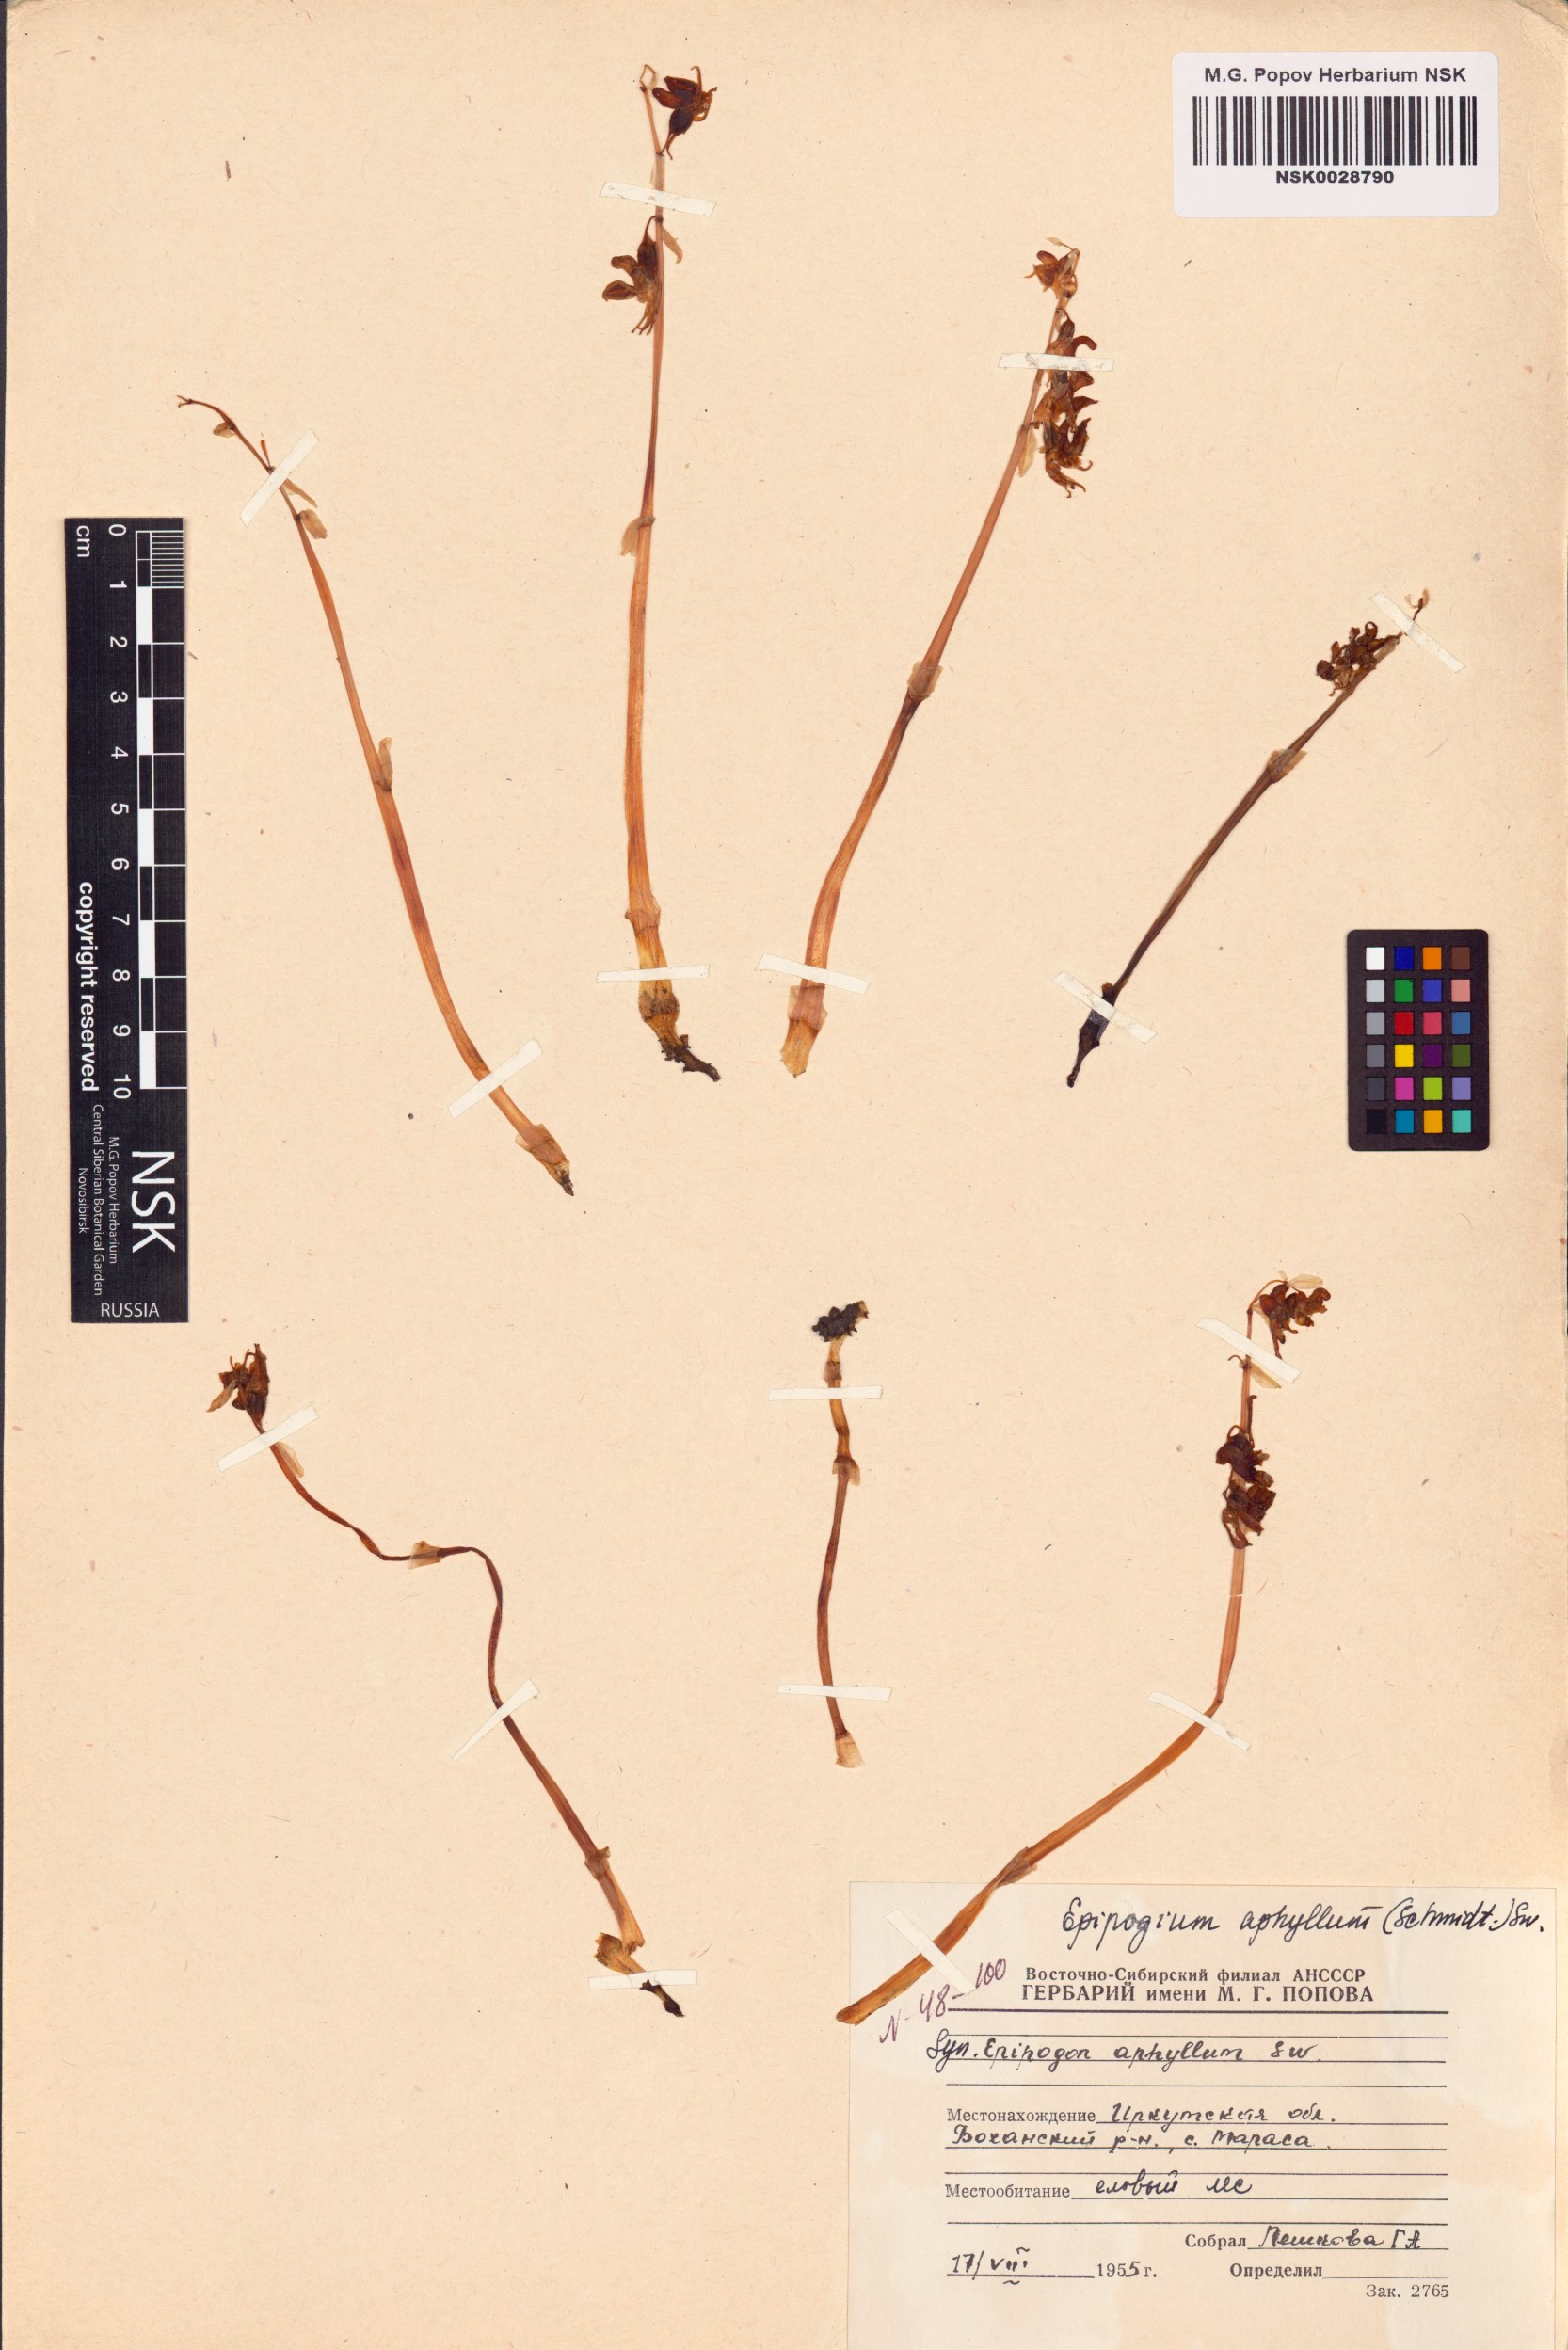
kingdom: Plantae
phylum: Tracheophyta
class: Liliopsida
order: Asparagales
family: Orchidaceae
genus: Epipogium
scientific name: Epipogium aphyllum
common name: Ghost orchid
